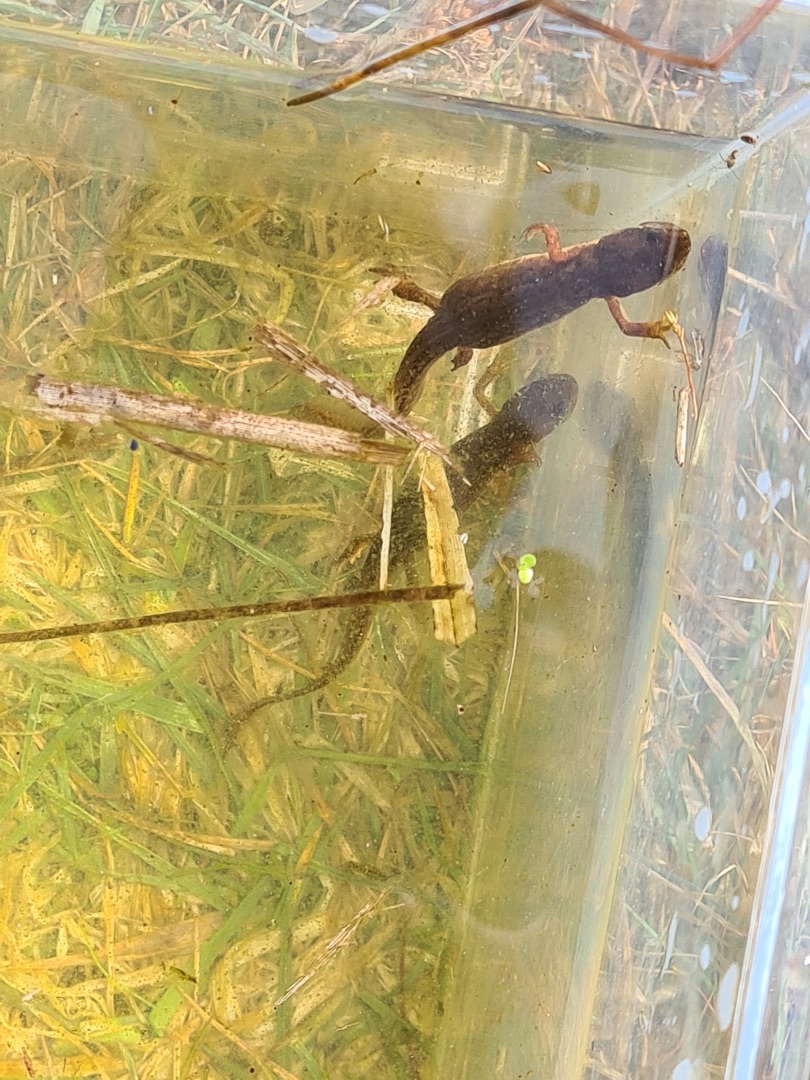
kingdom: Animalia
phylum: Chordata
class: Amphibia
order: Caudata
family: Salamandridae
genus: Lissotriton
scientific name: Lissotriton vulgaris
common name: Lille vandsalamander
